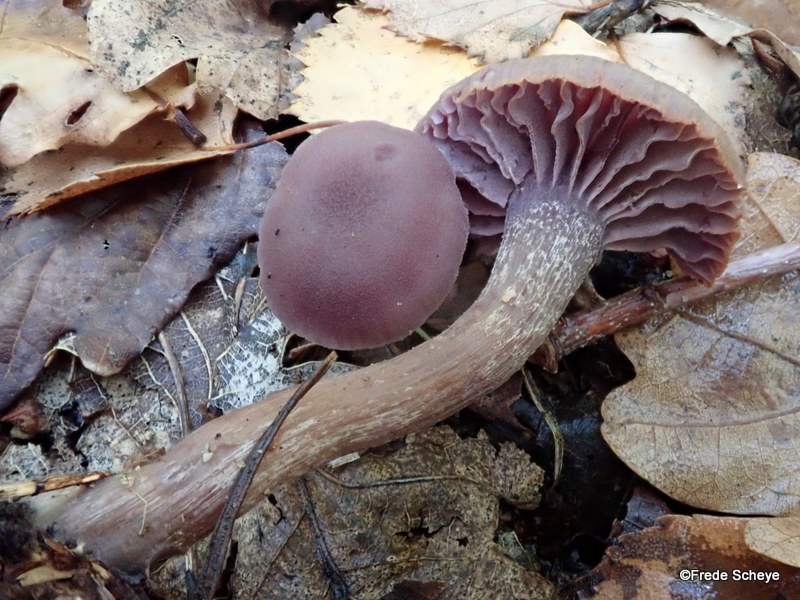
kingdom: Fungi
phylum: Basidiomycota
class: Agaricomycetes
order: Agaricales
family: Hydnangiaceae
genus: Laccaria
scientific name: Laccaria amethystina
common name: violet ametysthat
